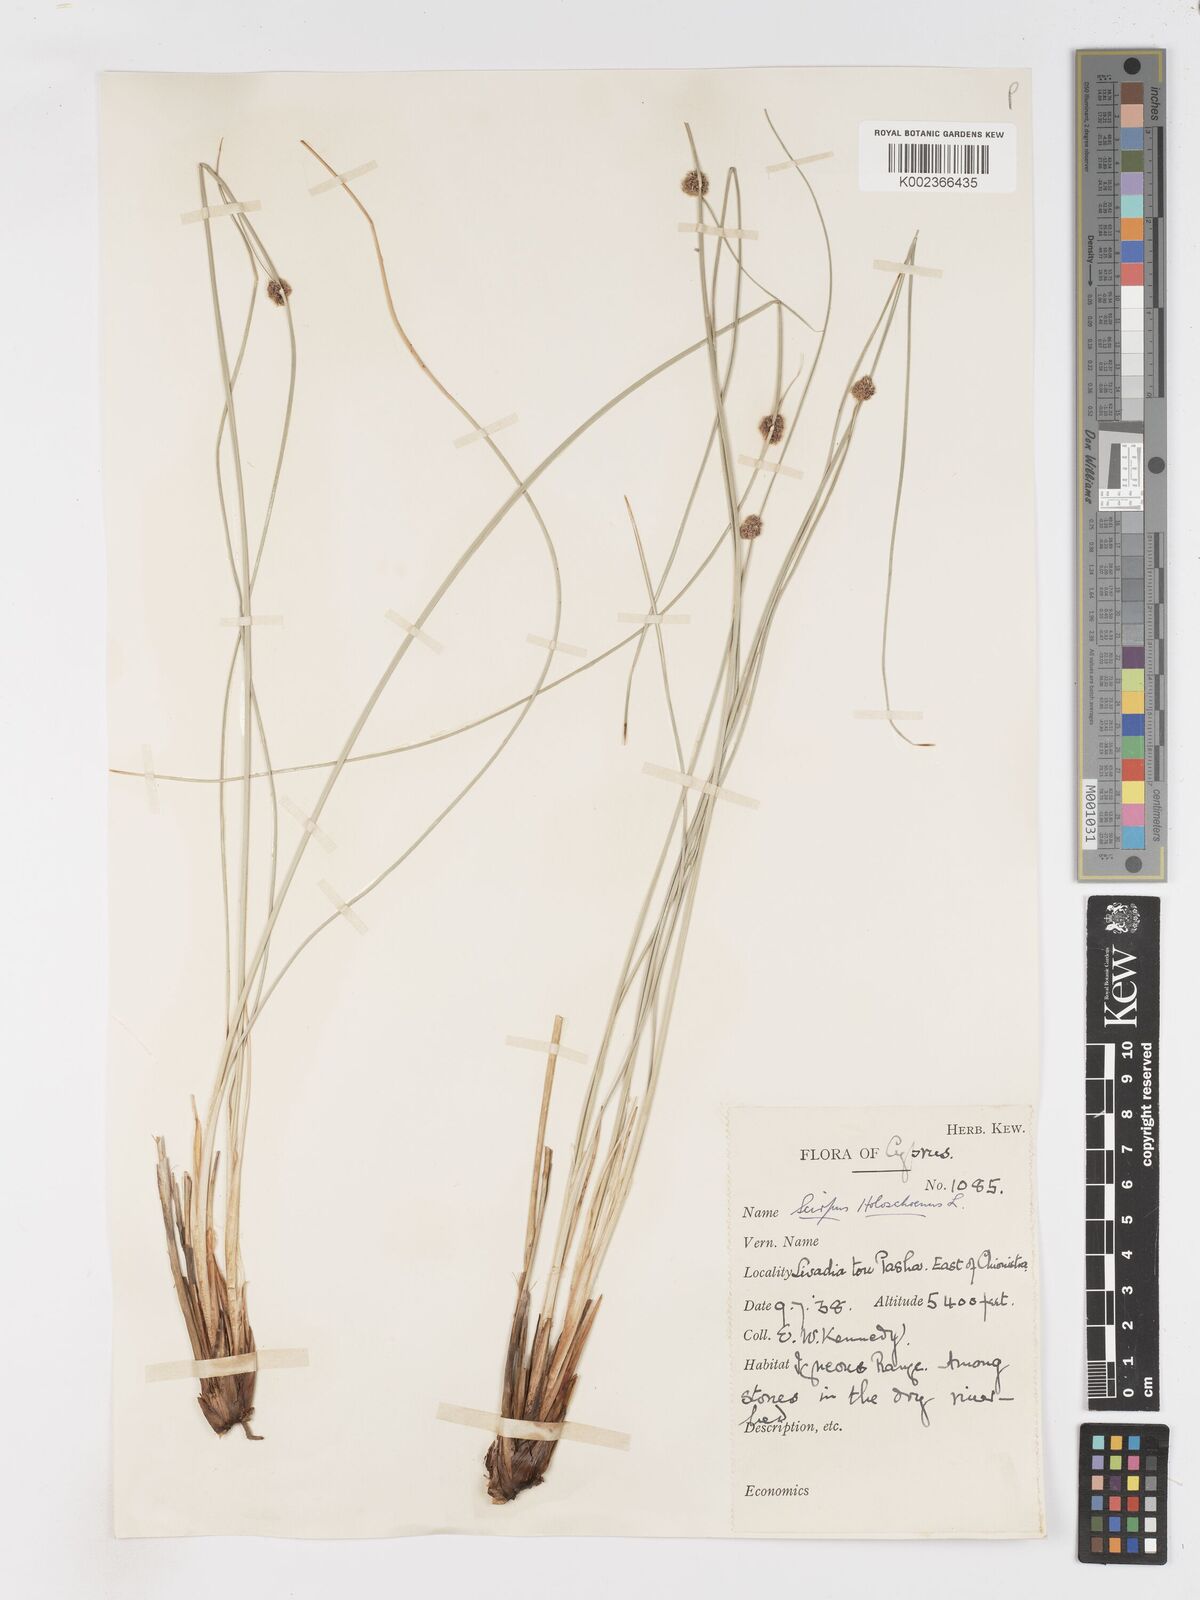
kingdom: Plantae
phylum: Tracheophyta
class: Liliopsida
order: Poales
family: Cyperaceae
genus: Scirpoides
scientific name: Scirpoides holoschoenus
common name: Round-headed club-rush
